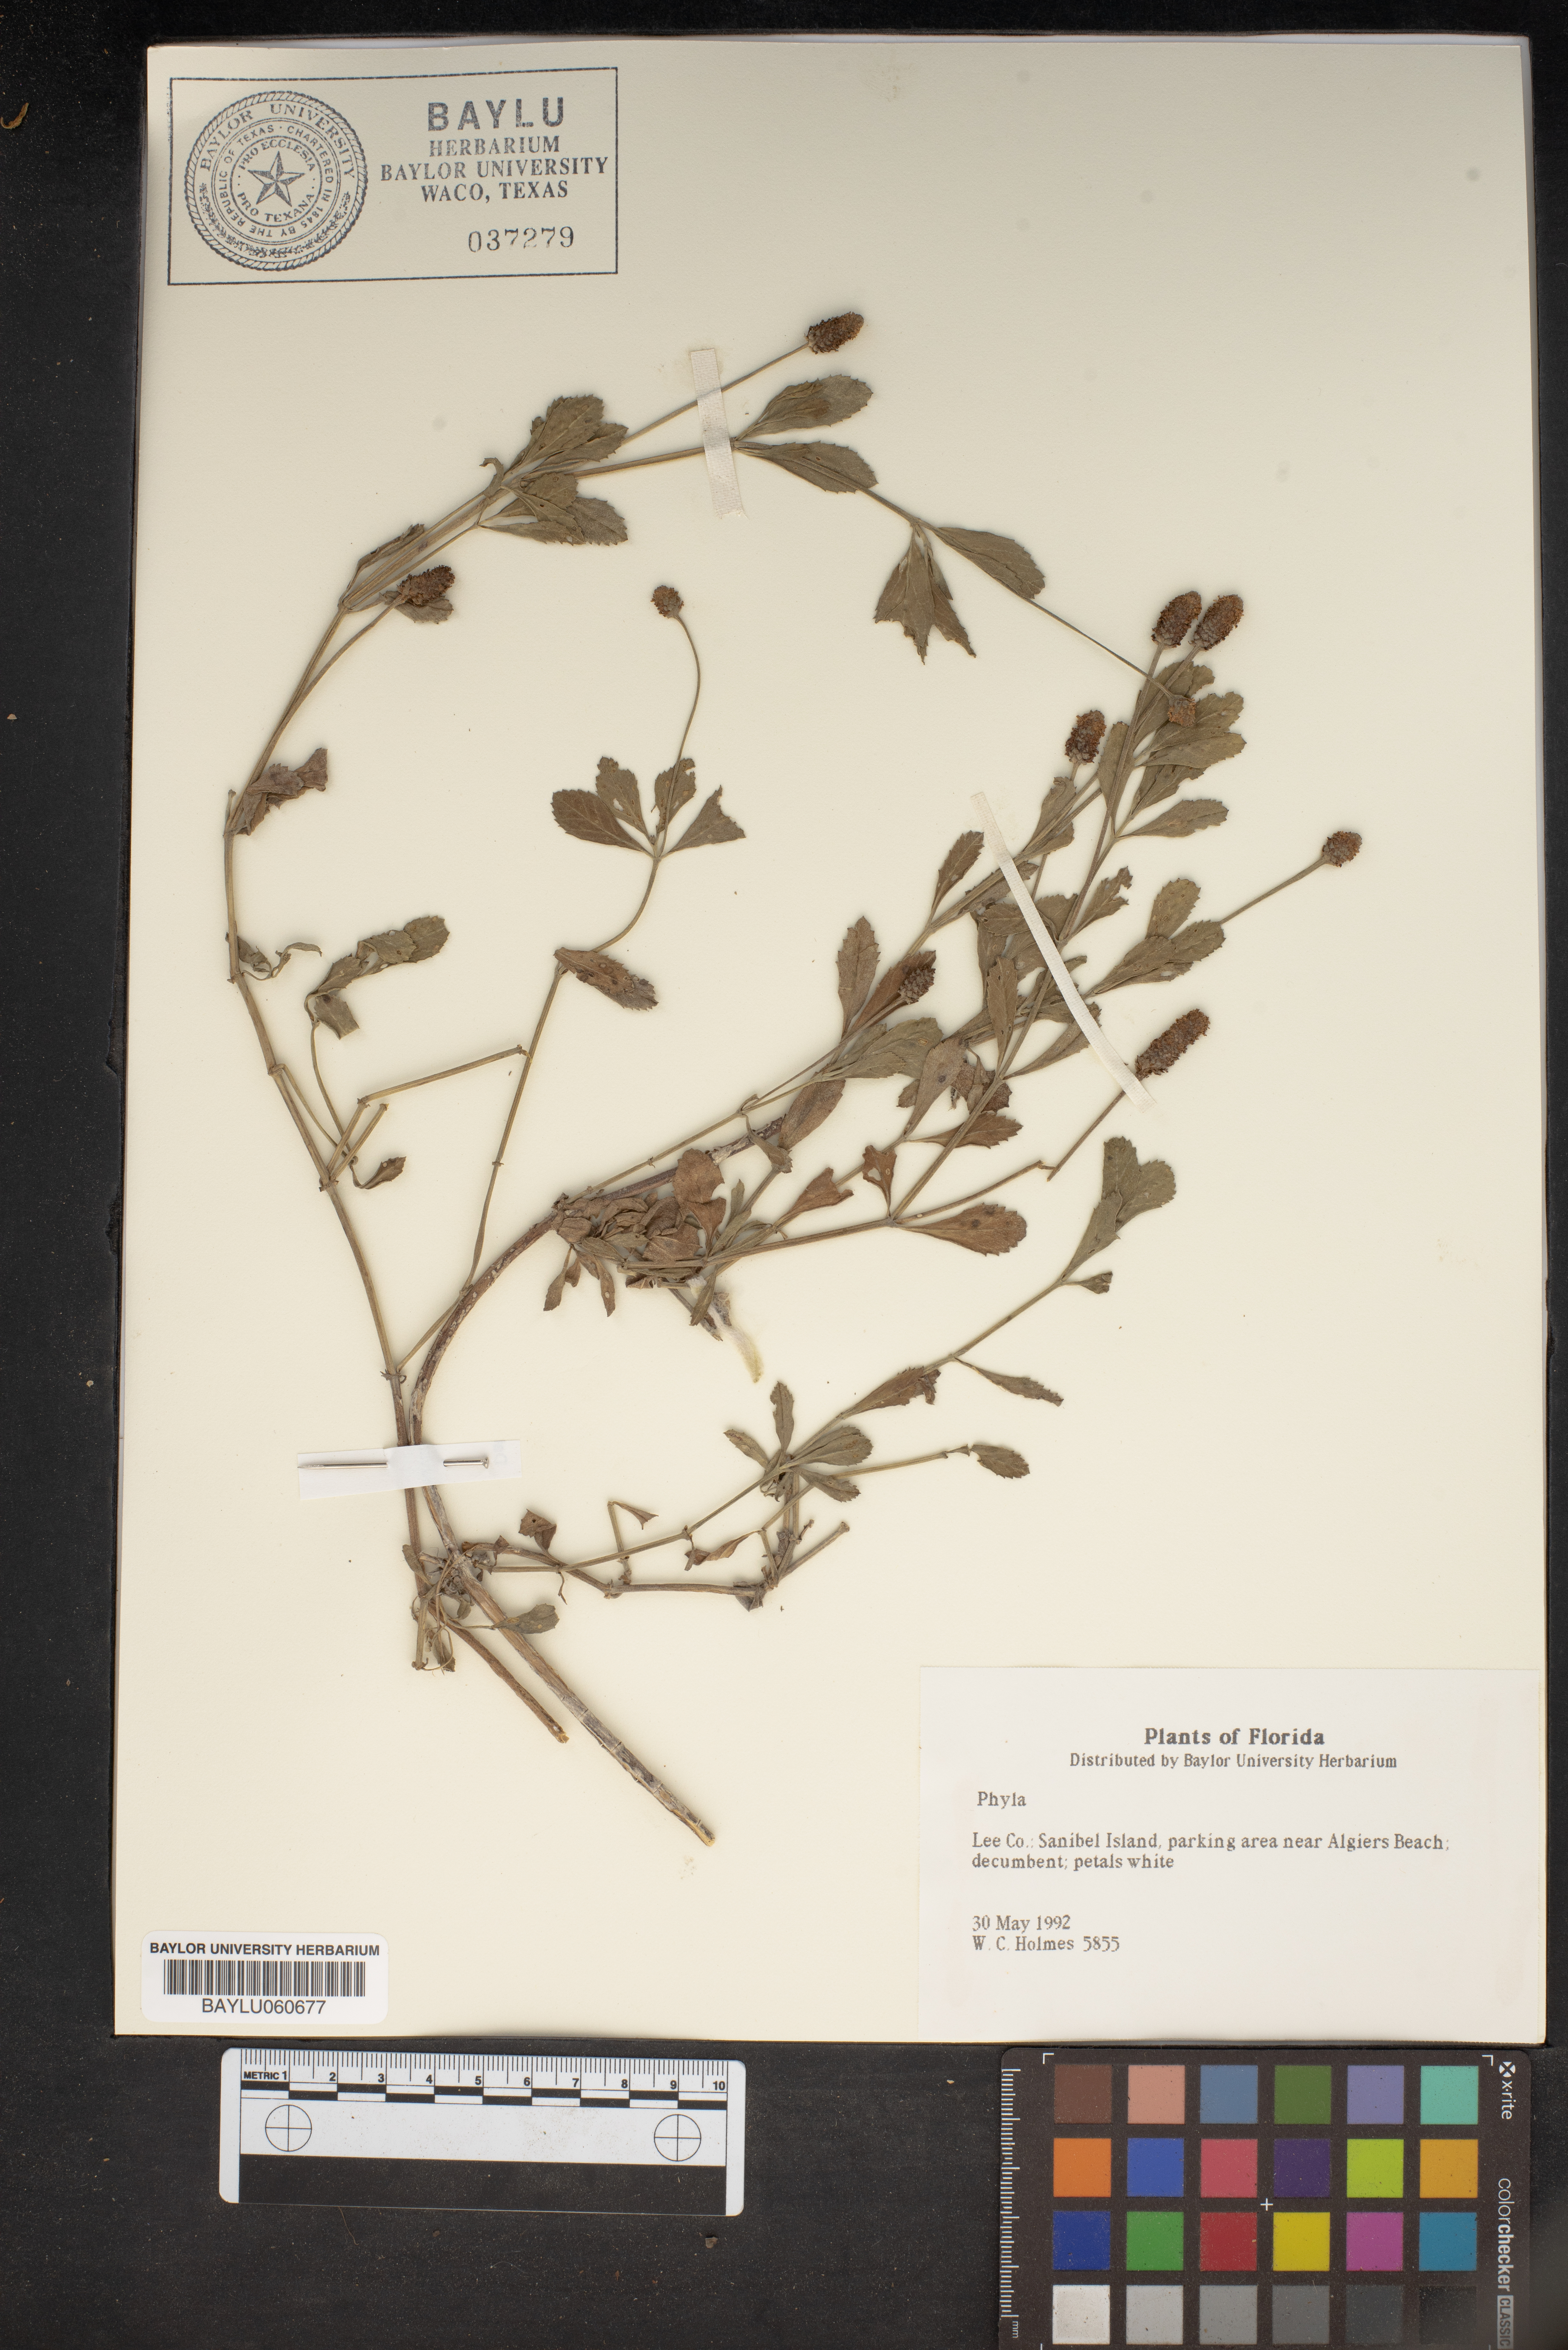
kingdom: Plantae
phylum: Tracheophyta
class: Magnoliopsida
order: Lamiales
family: Verbenaceae
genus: Phyla
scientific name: Phyla
